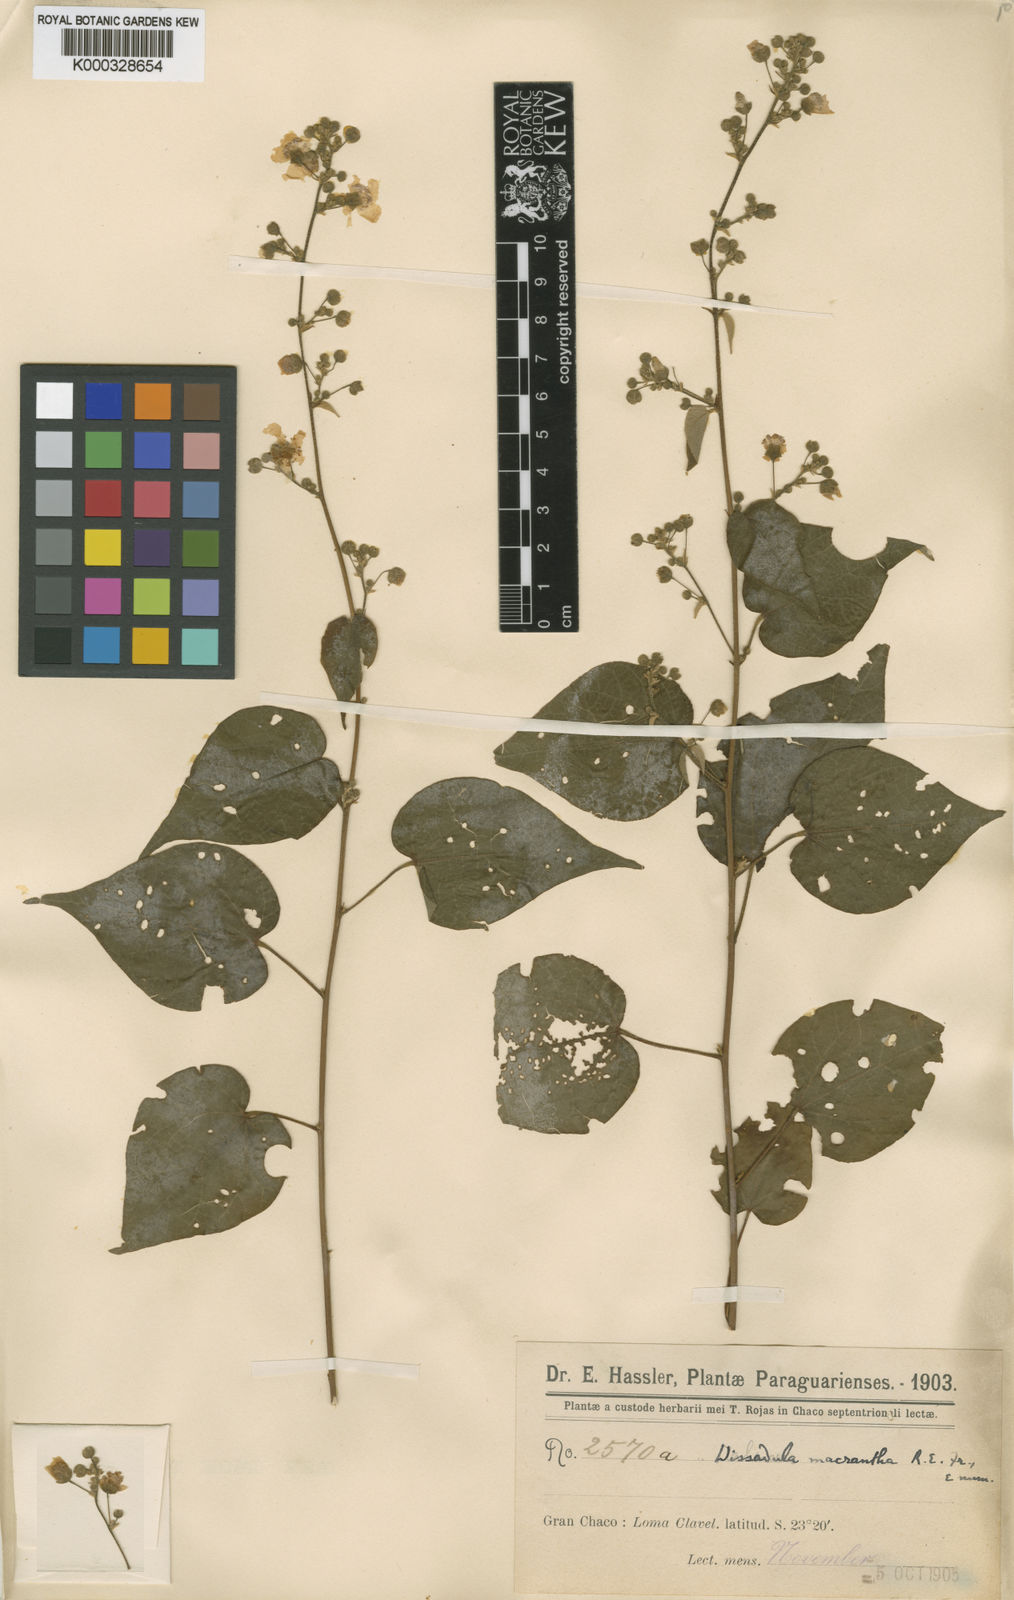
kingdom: Plantae
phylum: Tracheophyta
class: Magnoliopsida
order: Malvales
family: Malvaceae
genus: Wissadula
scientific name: Wissadula
